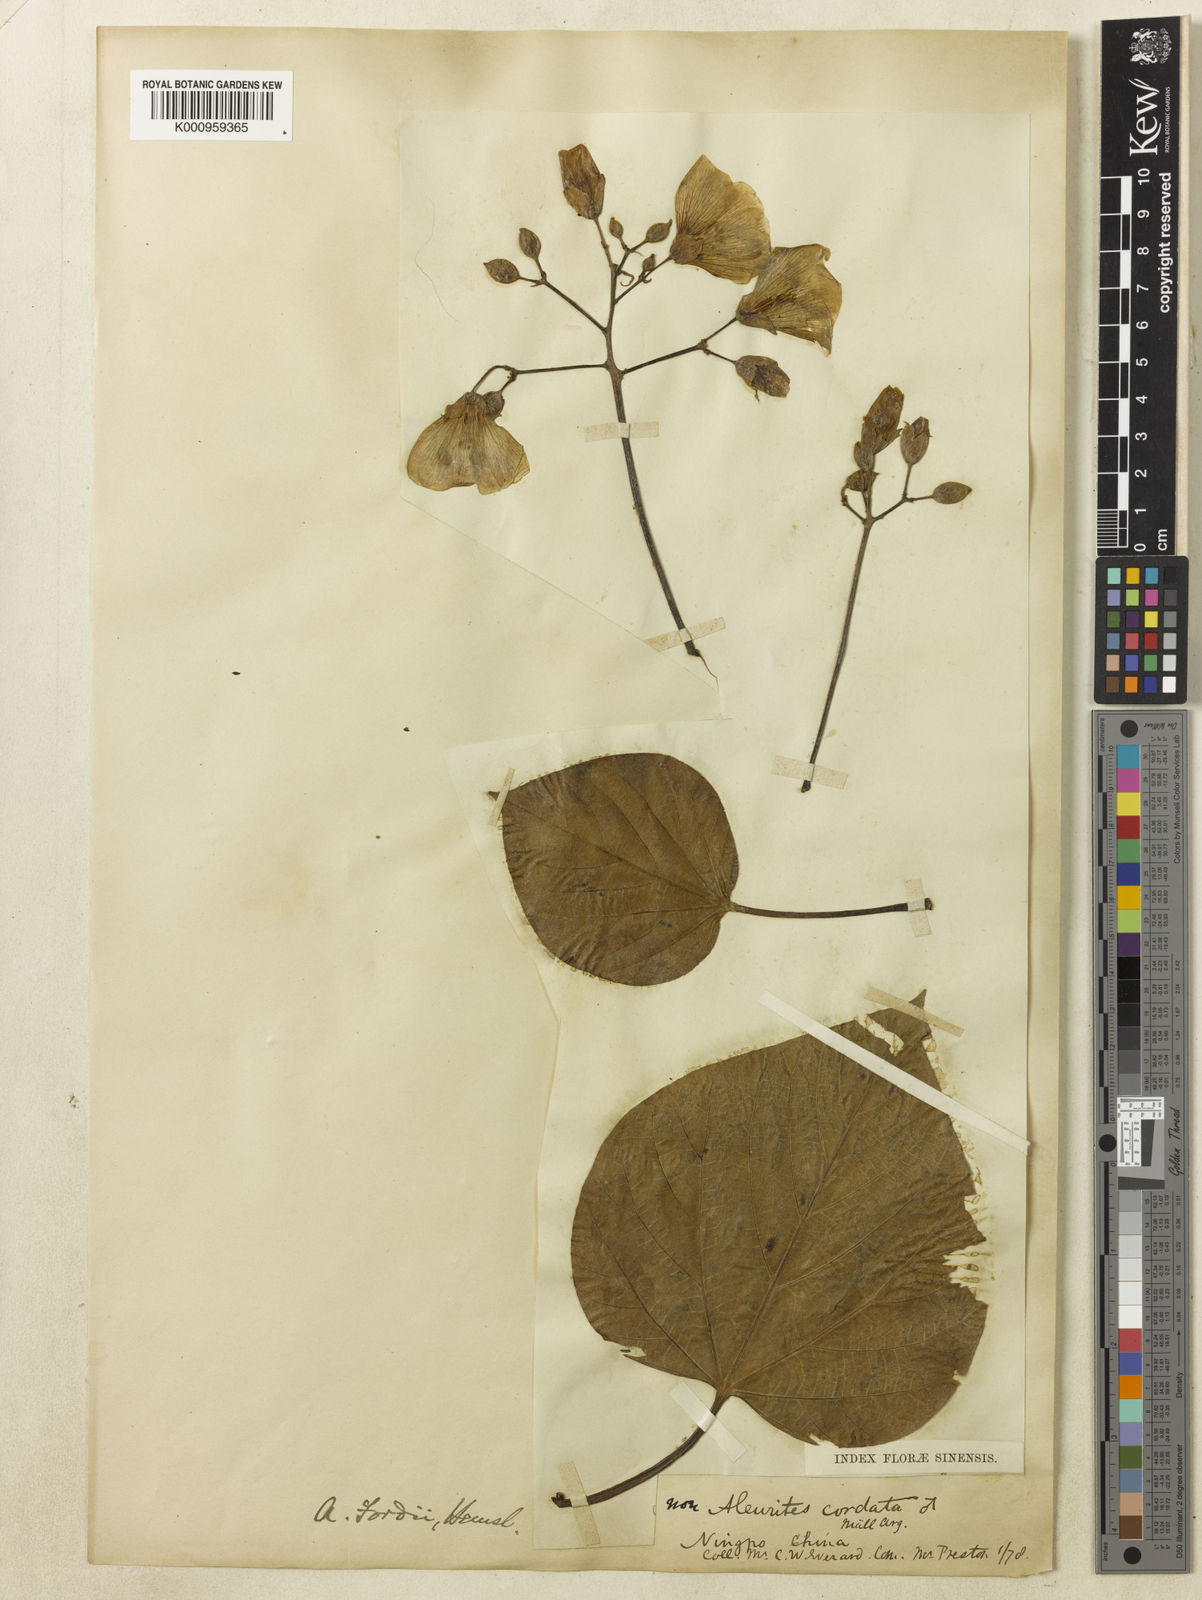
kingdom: Plantae
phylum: Tracheophyta
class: Magnoliopsida
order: Malpighiales
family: Euphorbiaceae
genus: Vernicia
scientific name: Vernicia fordii
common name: Tungoil tree
